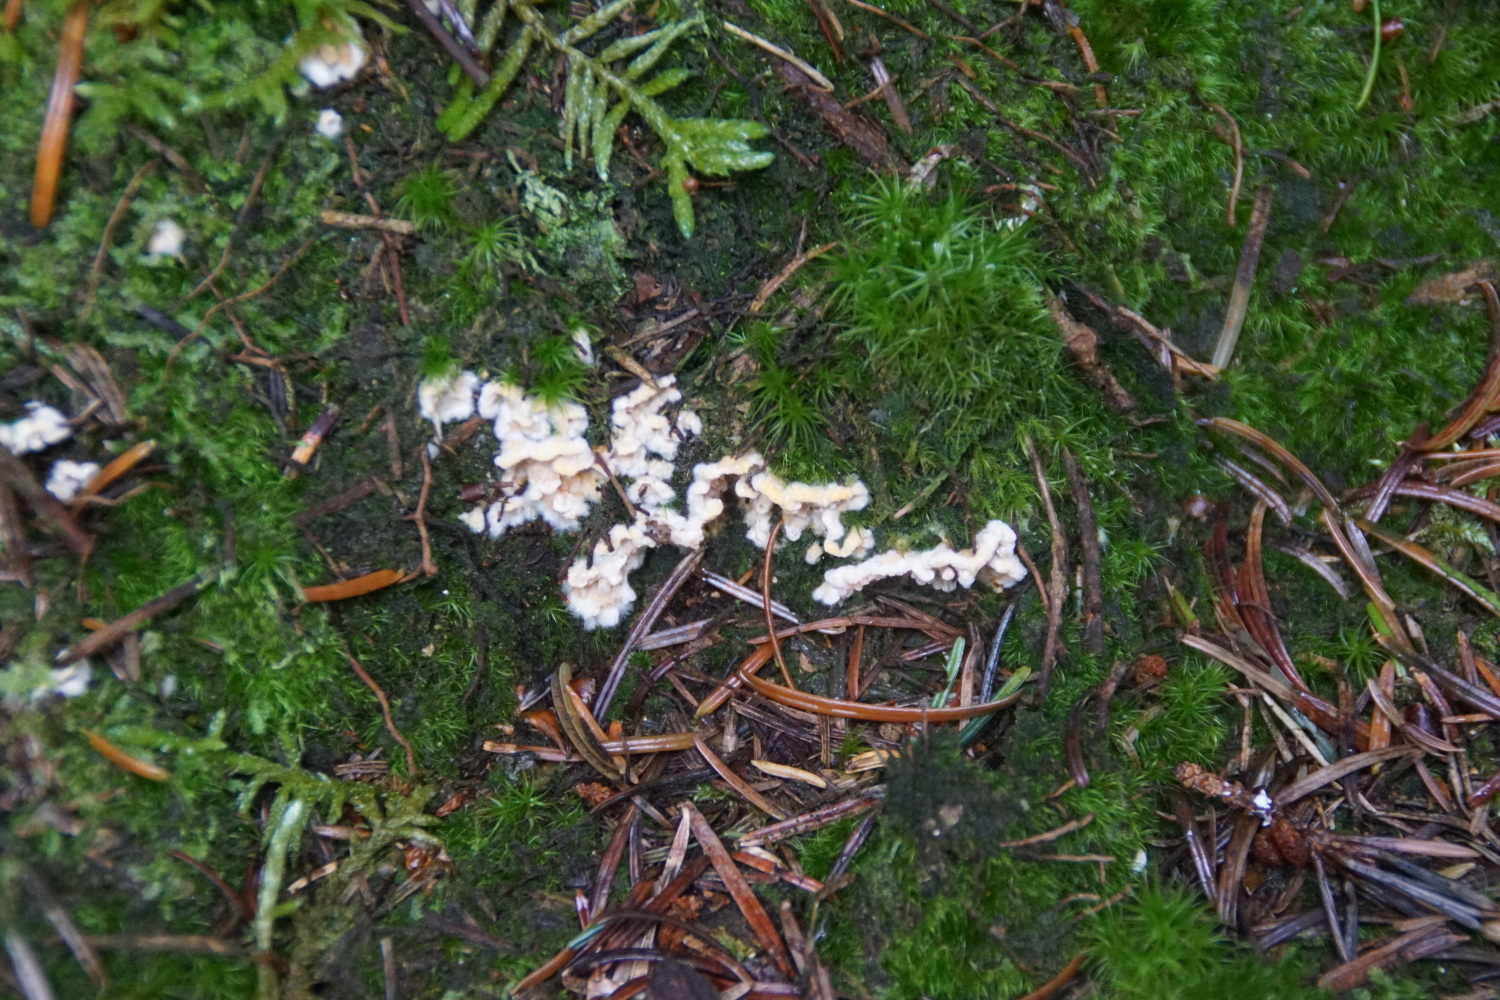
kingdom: Fungi
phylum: Basidiomycota
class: Agaricomycetes
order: Boletales
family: Hygrophoropsidaceae
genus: Leucogyrophana
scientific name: Leucogyrophana
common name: hussvamp
